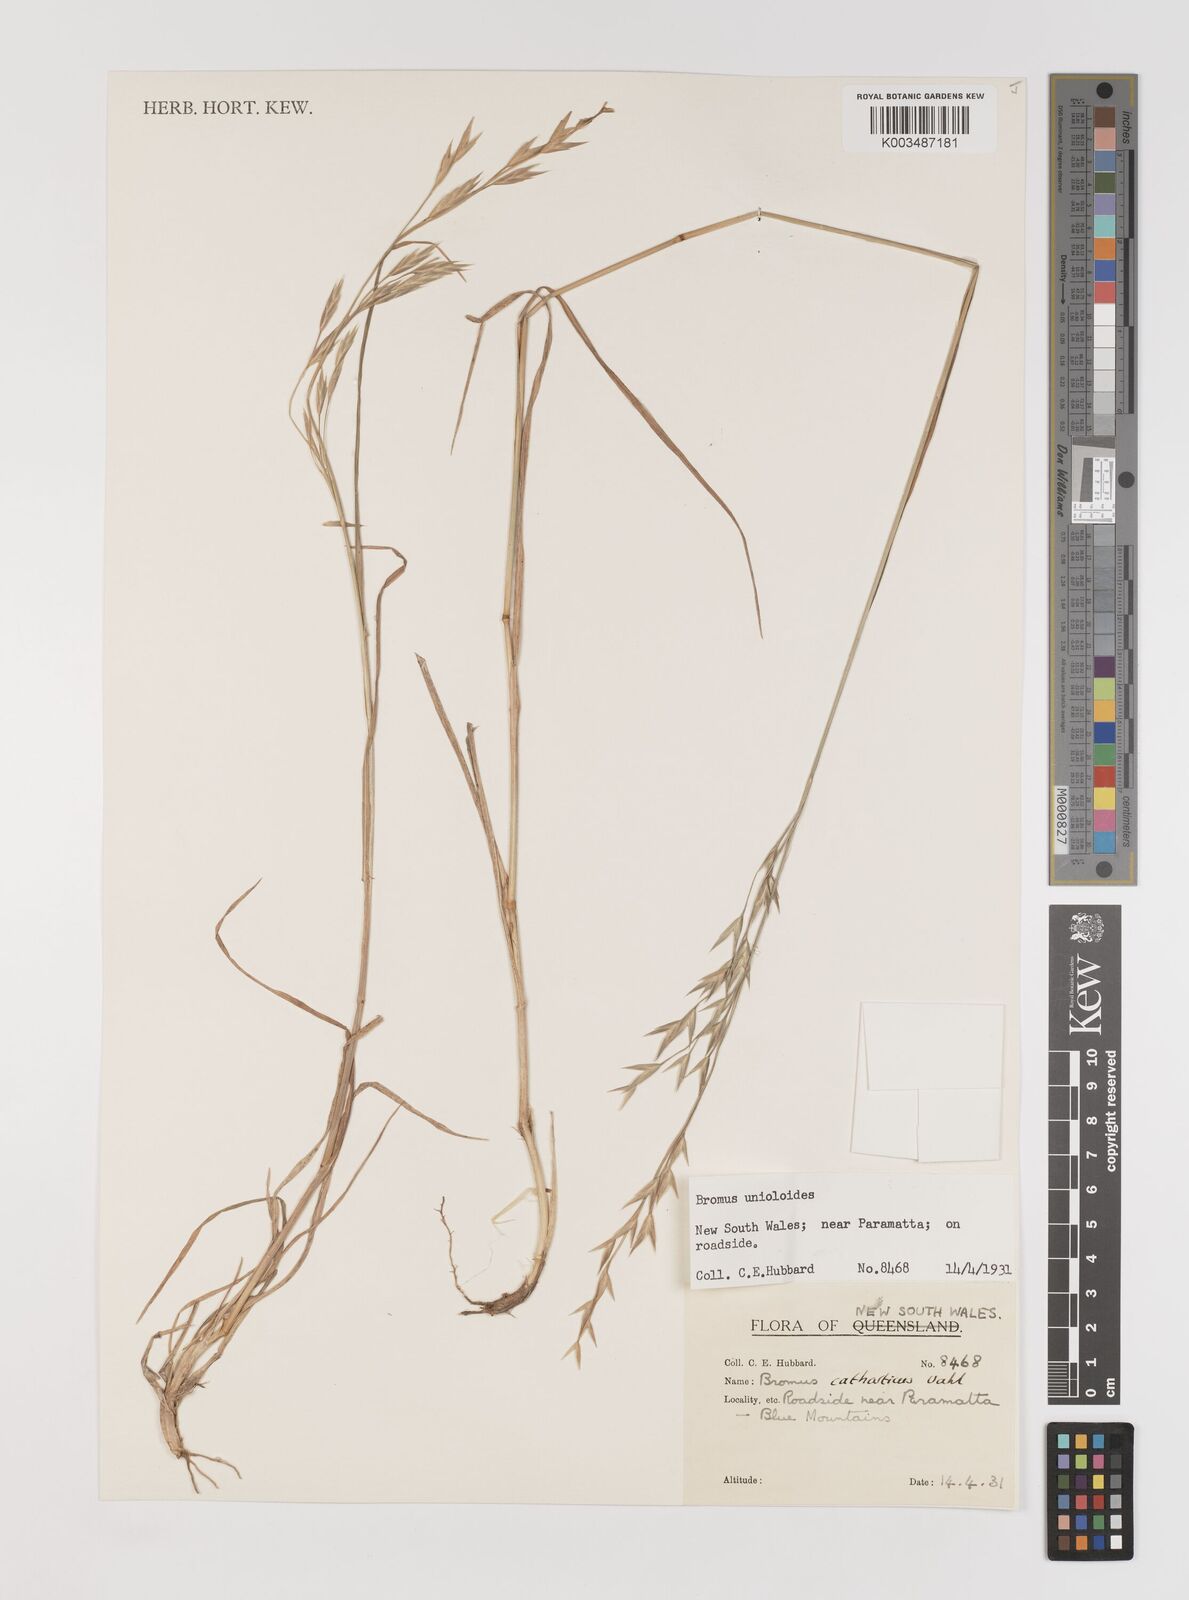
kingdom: Plantae
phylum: Tracheophyta
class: Liliopsida
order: Poales
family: Poaceae
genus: Bromus
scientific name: Bromus catharticus
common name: Rescuegrass
